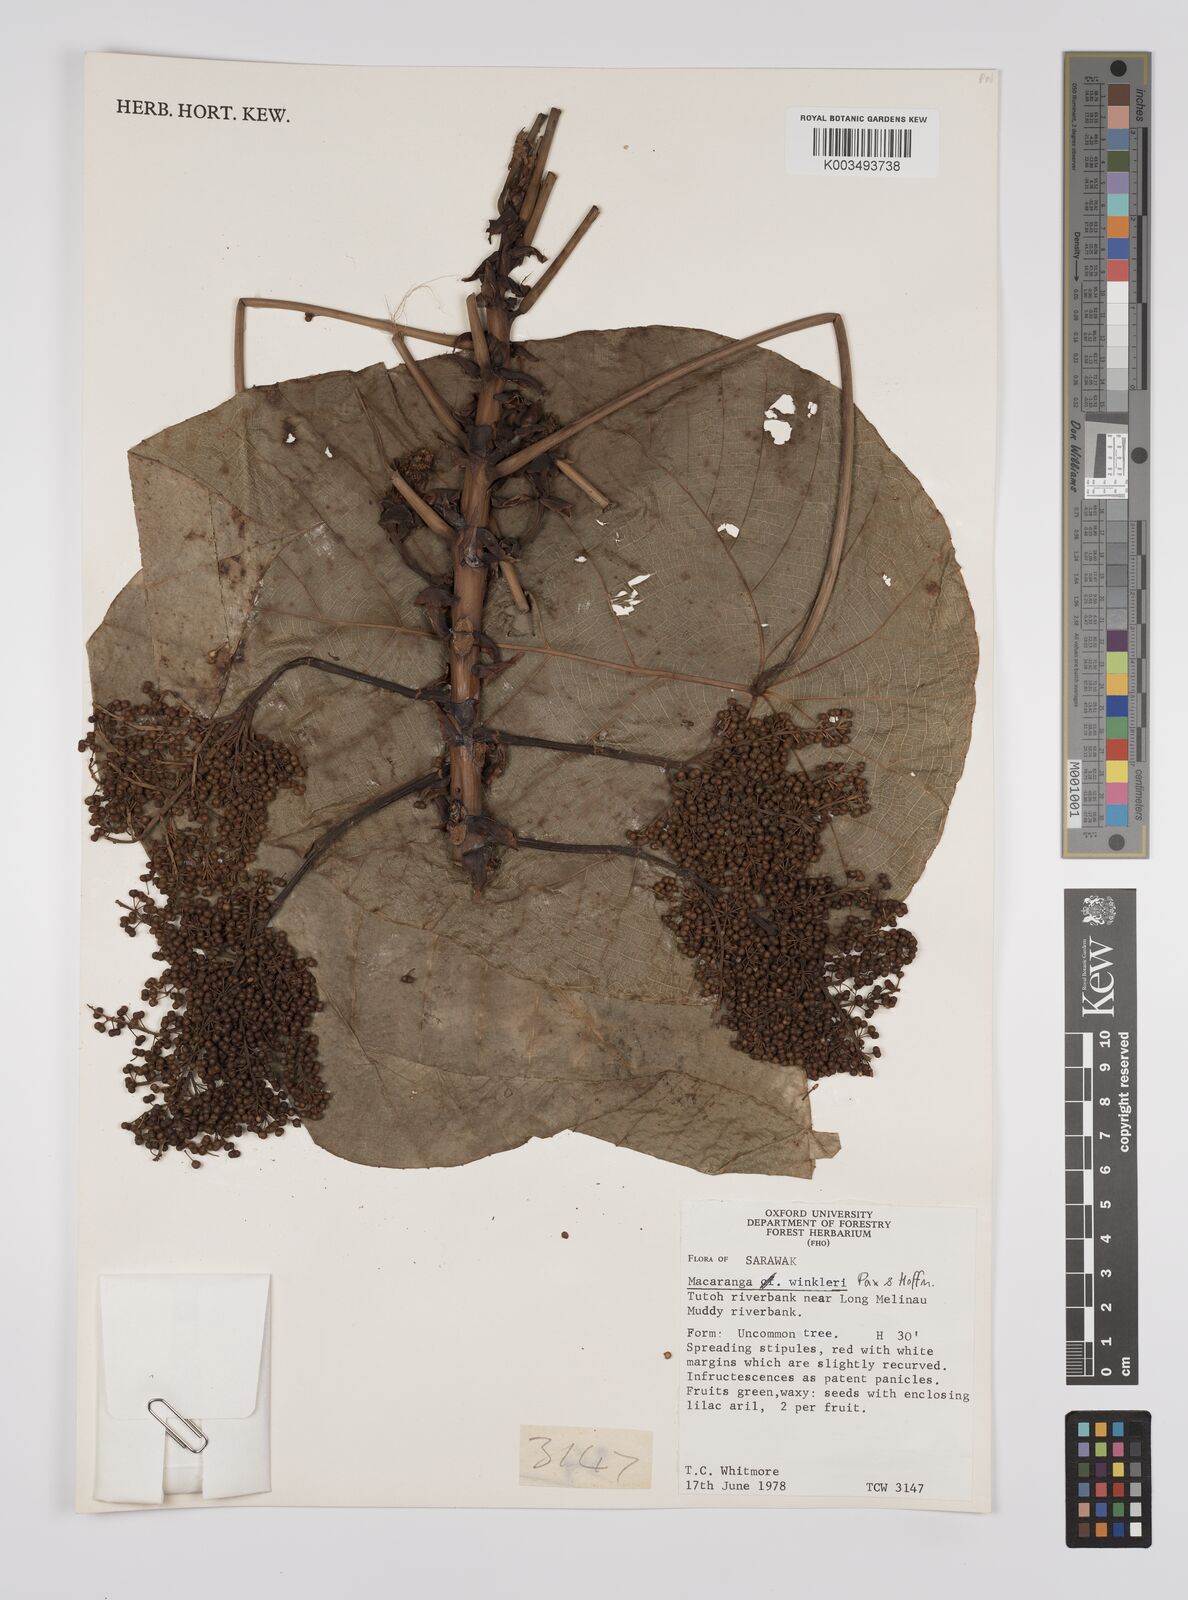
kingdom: Plantae
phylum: Tracheophyta
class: Magnoliopsida
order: Malpighiales
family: Euphorbiaceae
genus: Macaranga
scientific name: Macaranga winkleri
